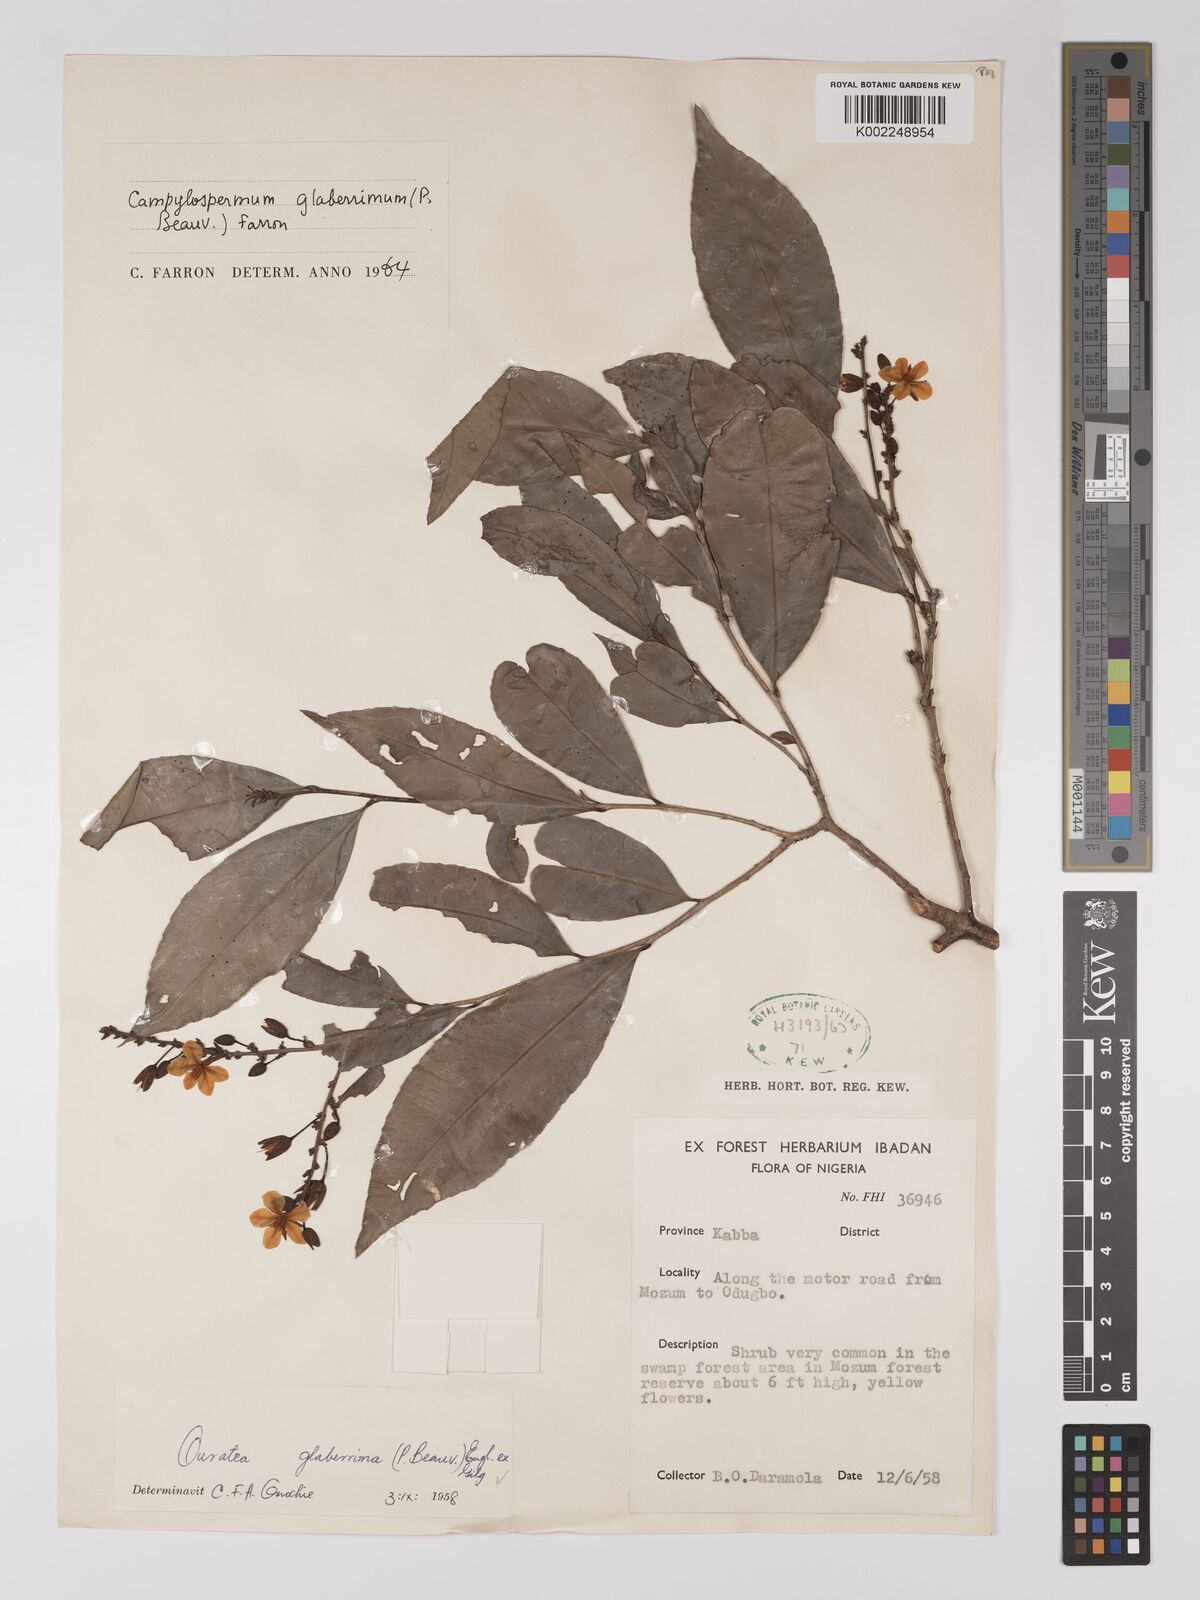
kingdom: Plantae
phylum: Tracheophyta
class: Magnoliopsida
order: Malpighiales
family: Ochnaceae
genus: Campylospermum
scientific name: Campylospermum glaberrimum
